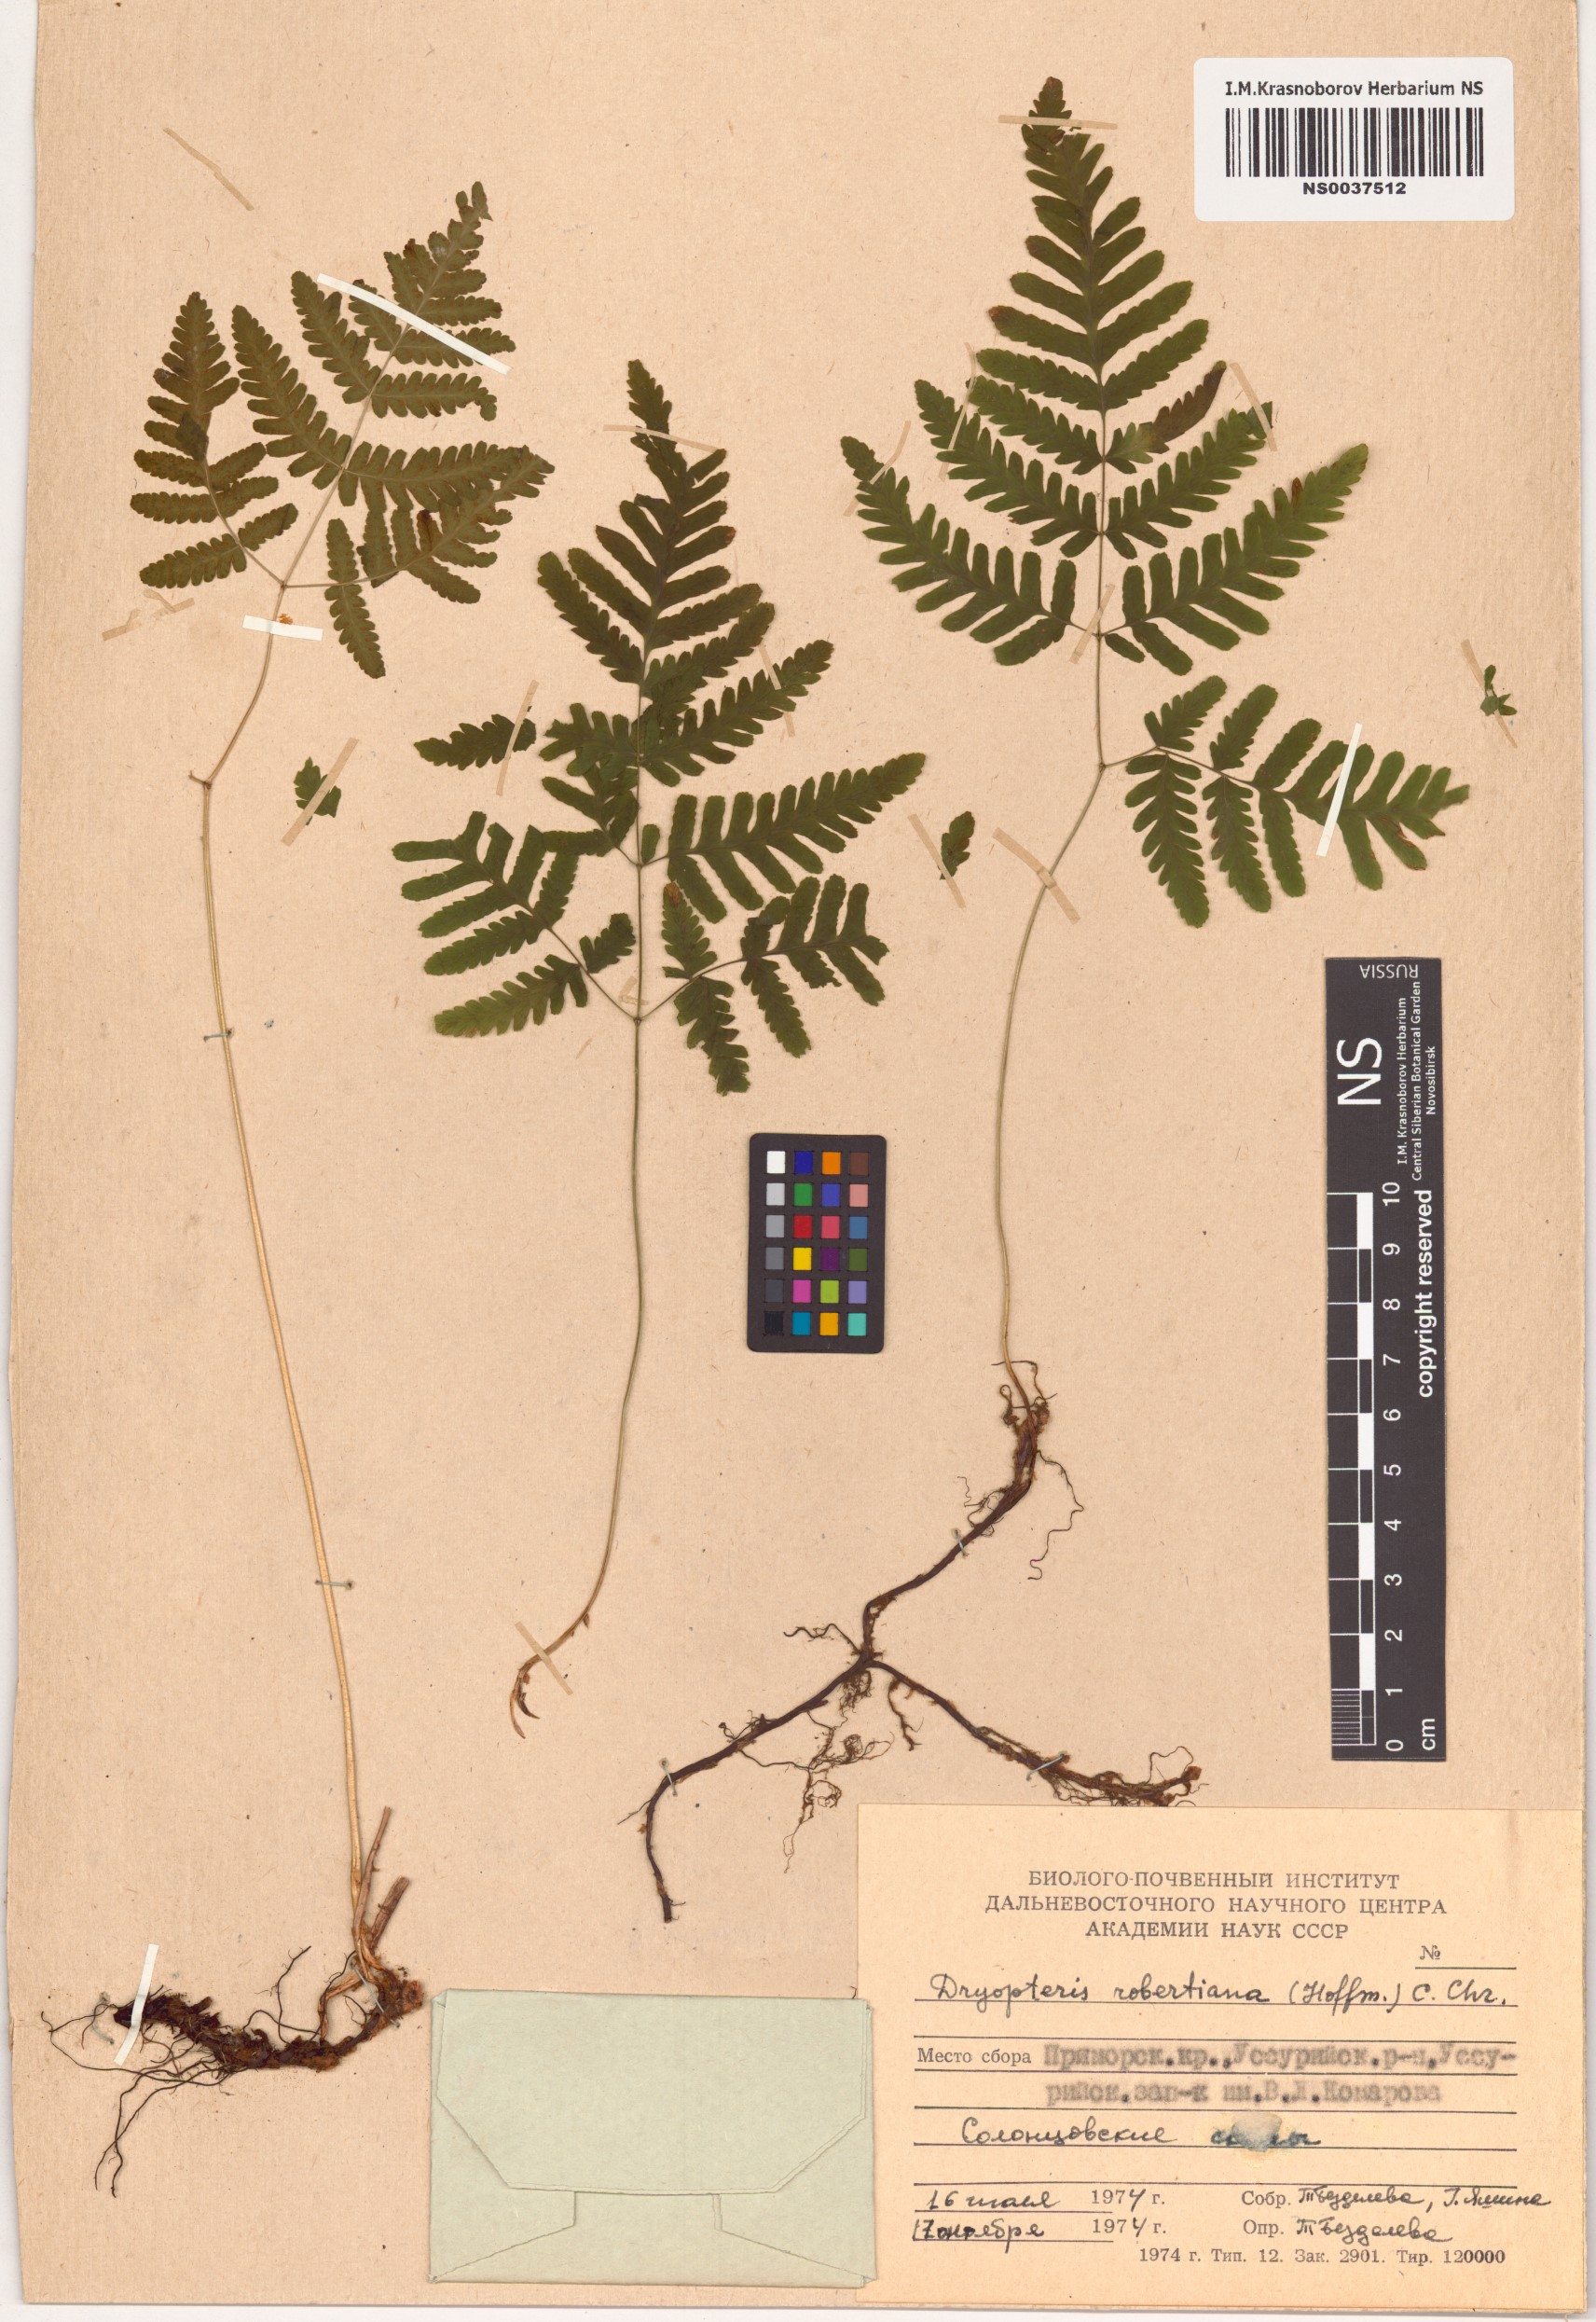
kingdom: Plantae
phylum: Tracheophyta
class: Polypodiopsida
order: Polypodiales
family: Cystopteridaceae
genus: Gymnocarpium
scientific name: Gymnocarpium robertianum
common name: Limestone fern
